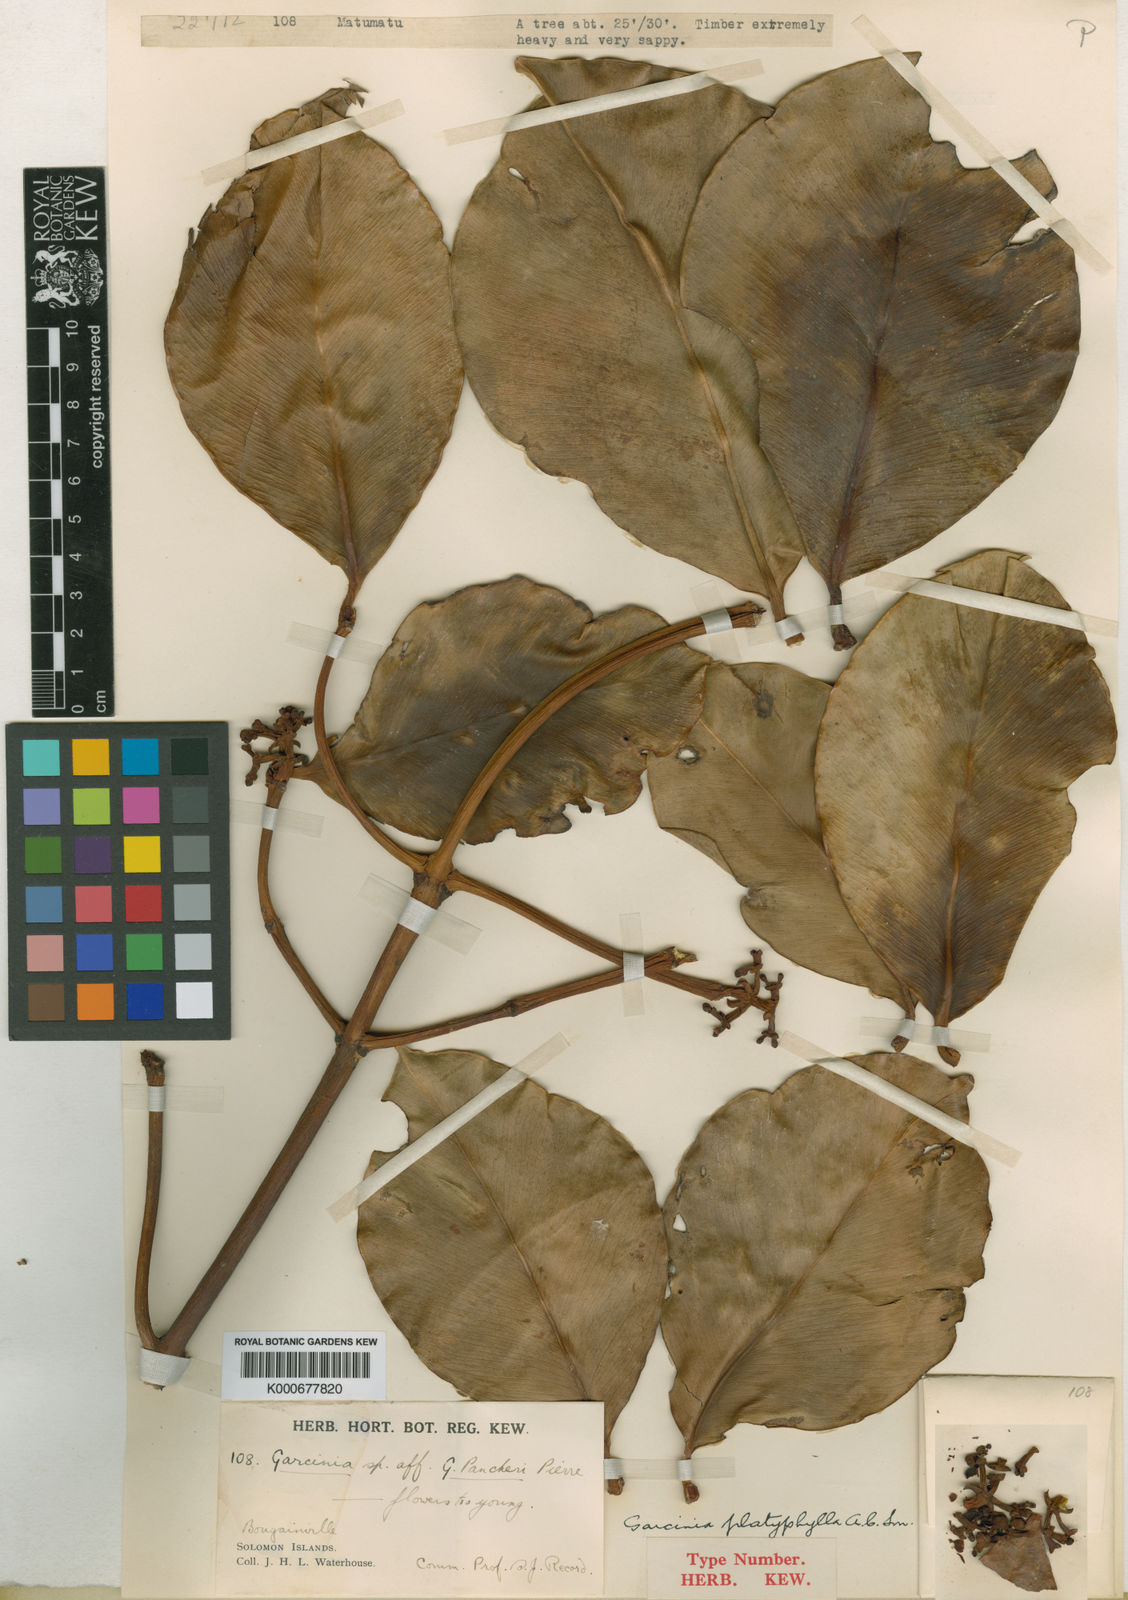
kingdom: Plantae
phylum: Tracheophyta
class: Magnoliopsida
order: Malpighiales
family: Clusiaceae
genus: Garcinia
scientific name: Garcinia platyphylla
